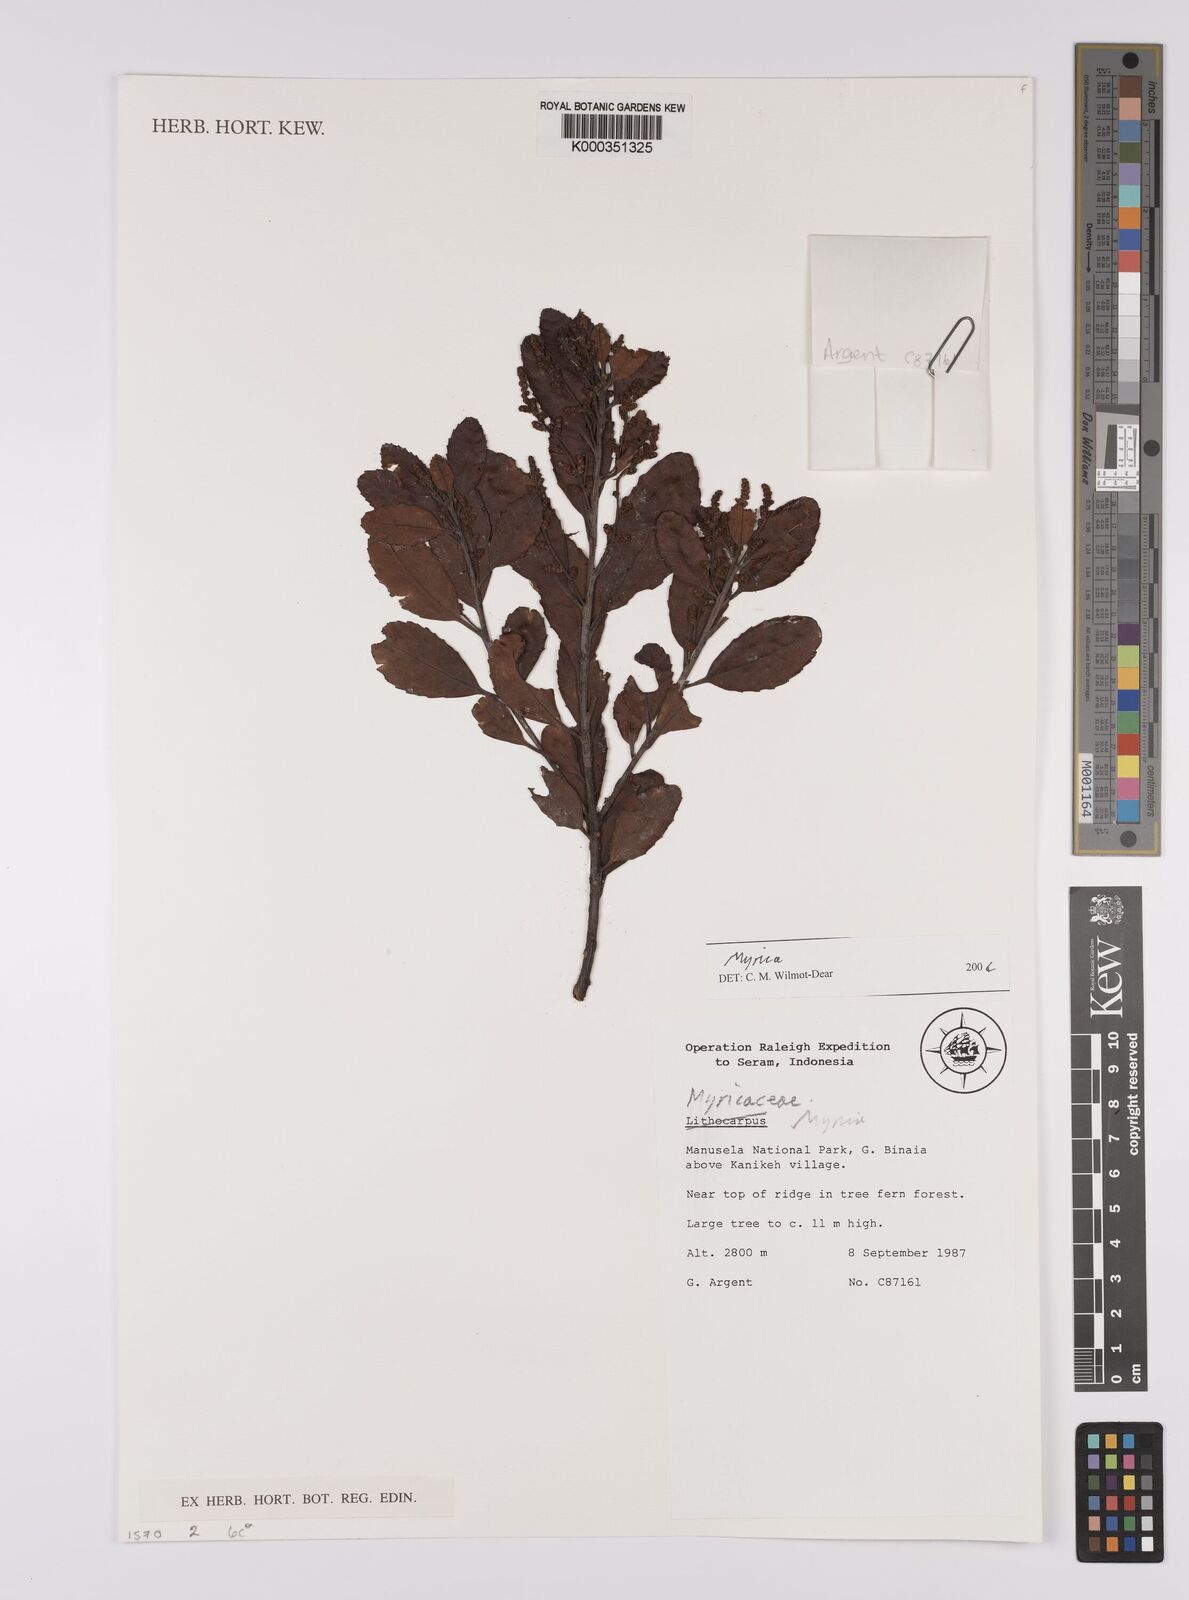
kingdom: Plantae
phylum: Tracheophyta
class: Magnoliopsida
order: Fagales
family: Myricaceae
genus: Myrica
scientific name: Myrica
